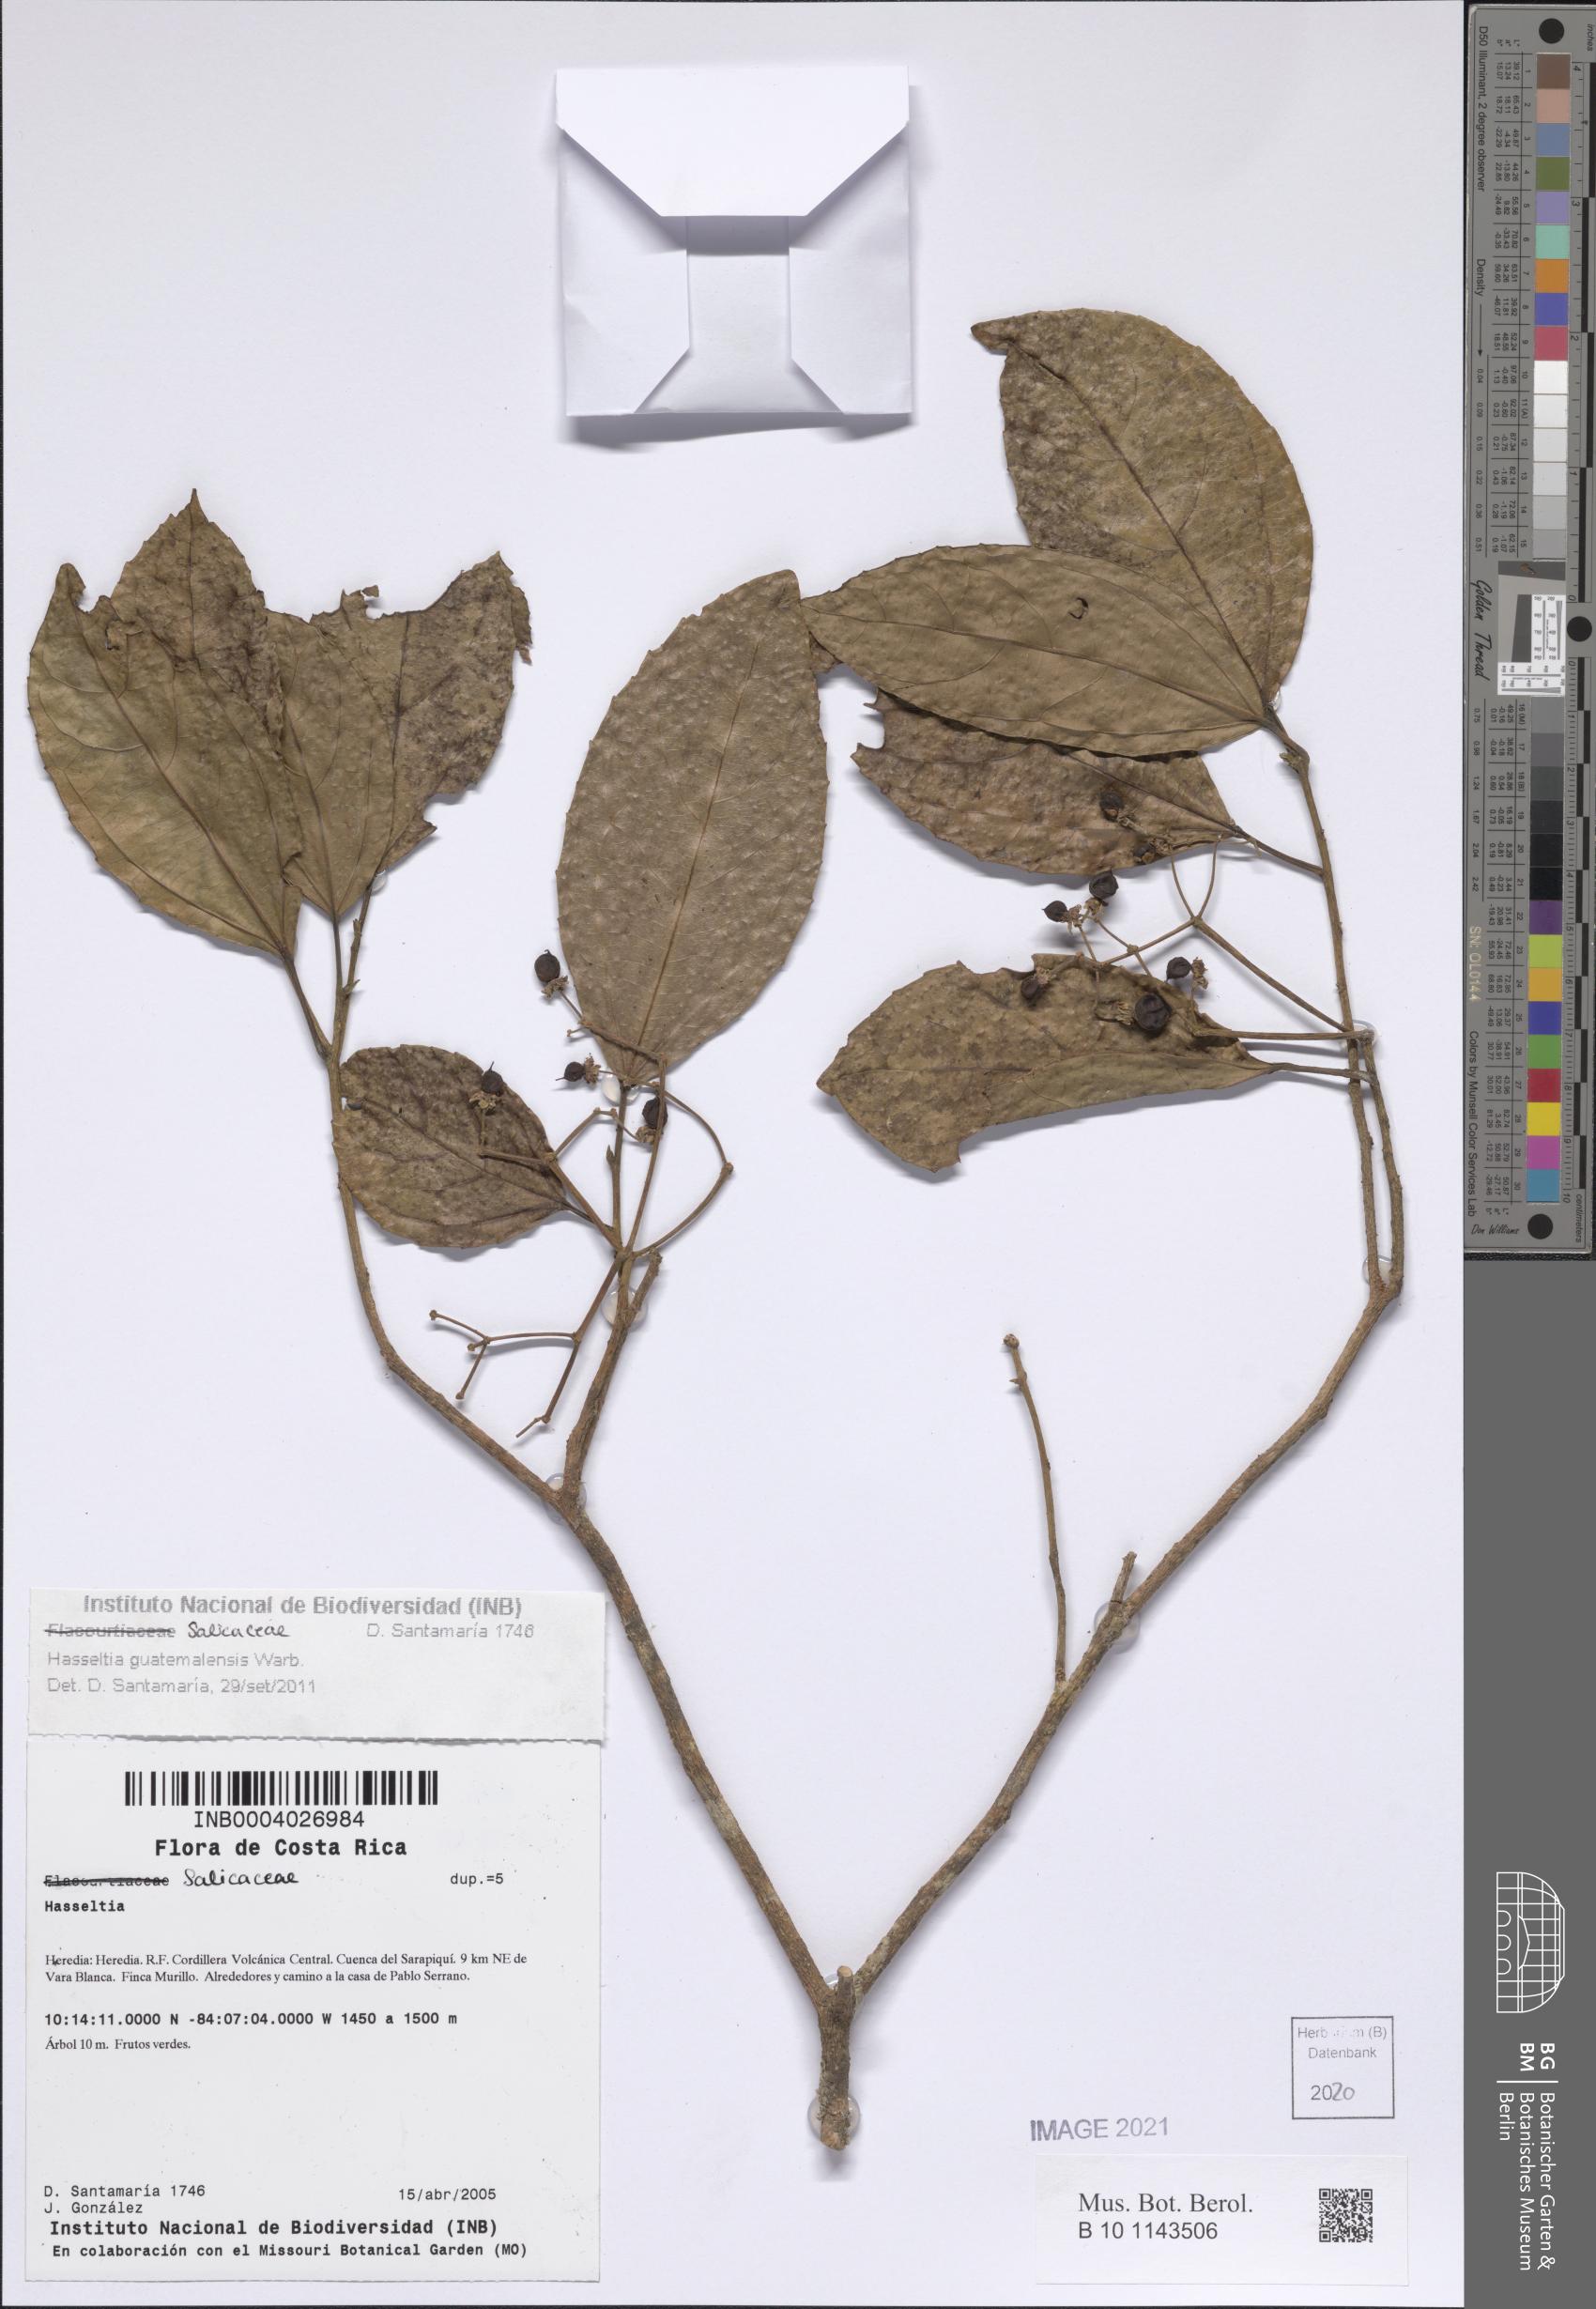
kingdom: Plantae
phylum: Tracheophyta
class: Magnoliopsida
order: Malpighiales
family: Salicaceae
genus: Hasseltia
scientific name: Hasseltia guatemalensis
